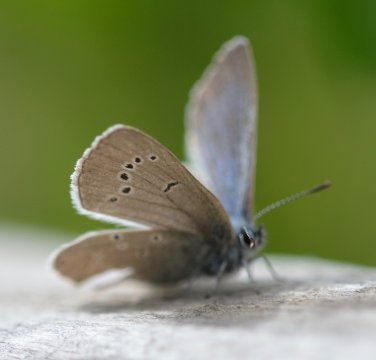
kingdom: Animalia
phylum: Arthropoda
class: Insecta
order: Lepidoptera
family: Lycaenidae
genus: Glaucopsyche
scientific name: Glaucopsyche lygdamus
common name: Silvery Blue
